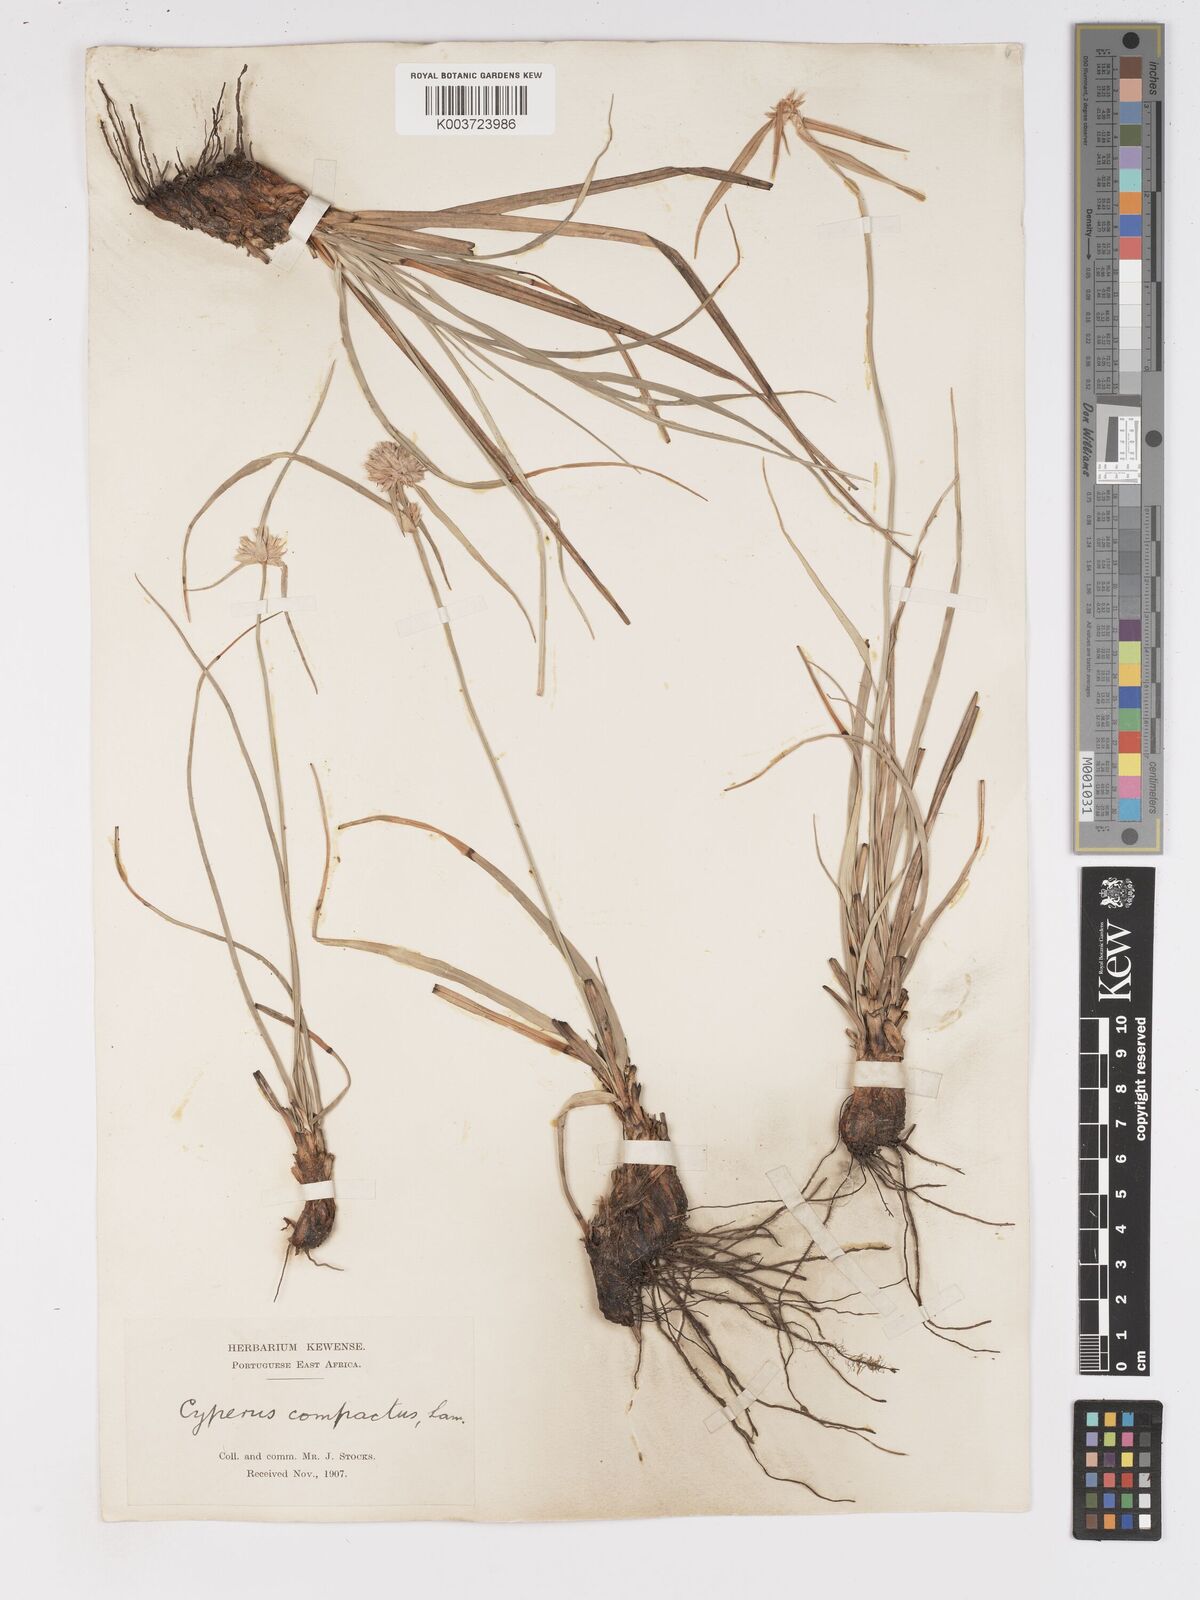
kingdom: Plantae
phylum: Tracheophyta
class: Liliopsida
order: Poales
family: Cyperaceae
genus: Cyperus
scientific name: Cyperus niveus
